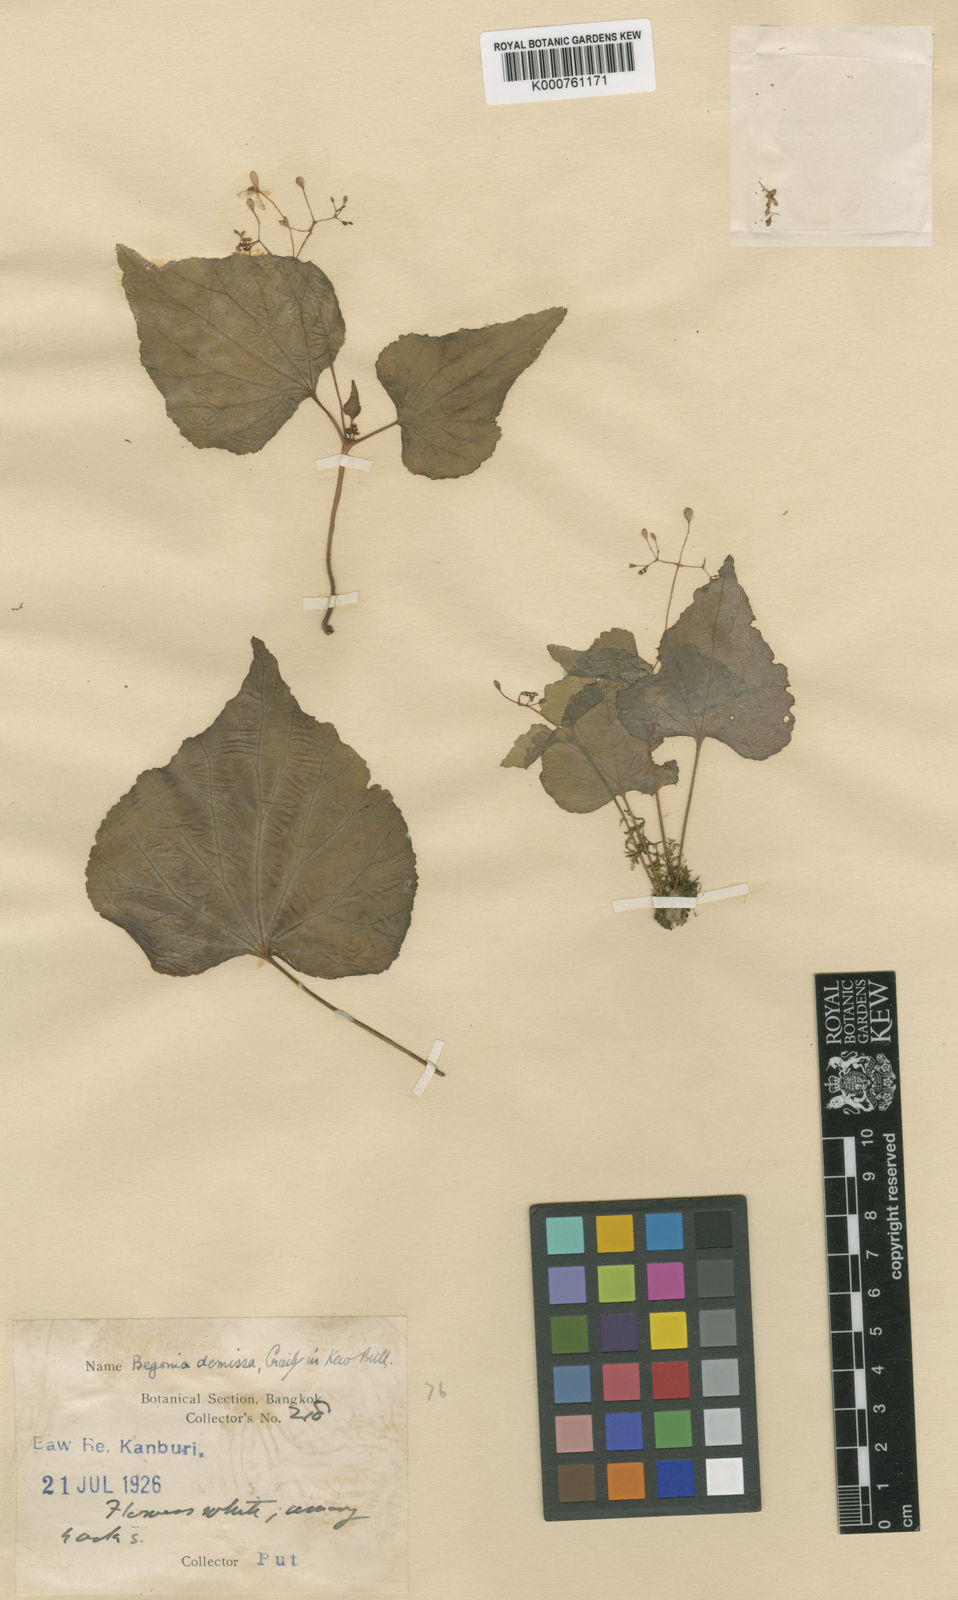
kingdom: Plantae
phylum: Tracheophyta
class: Magnoliopsida
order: Cucurbitales
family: Begoniaceae
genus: Begonia
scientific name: Begonia demissa
